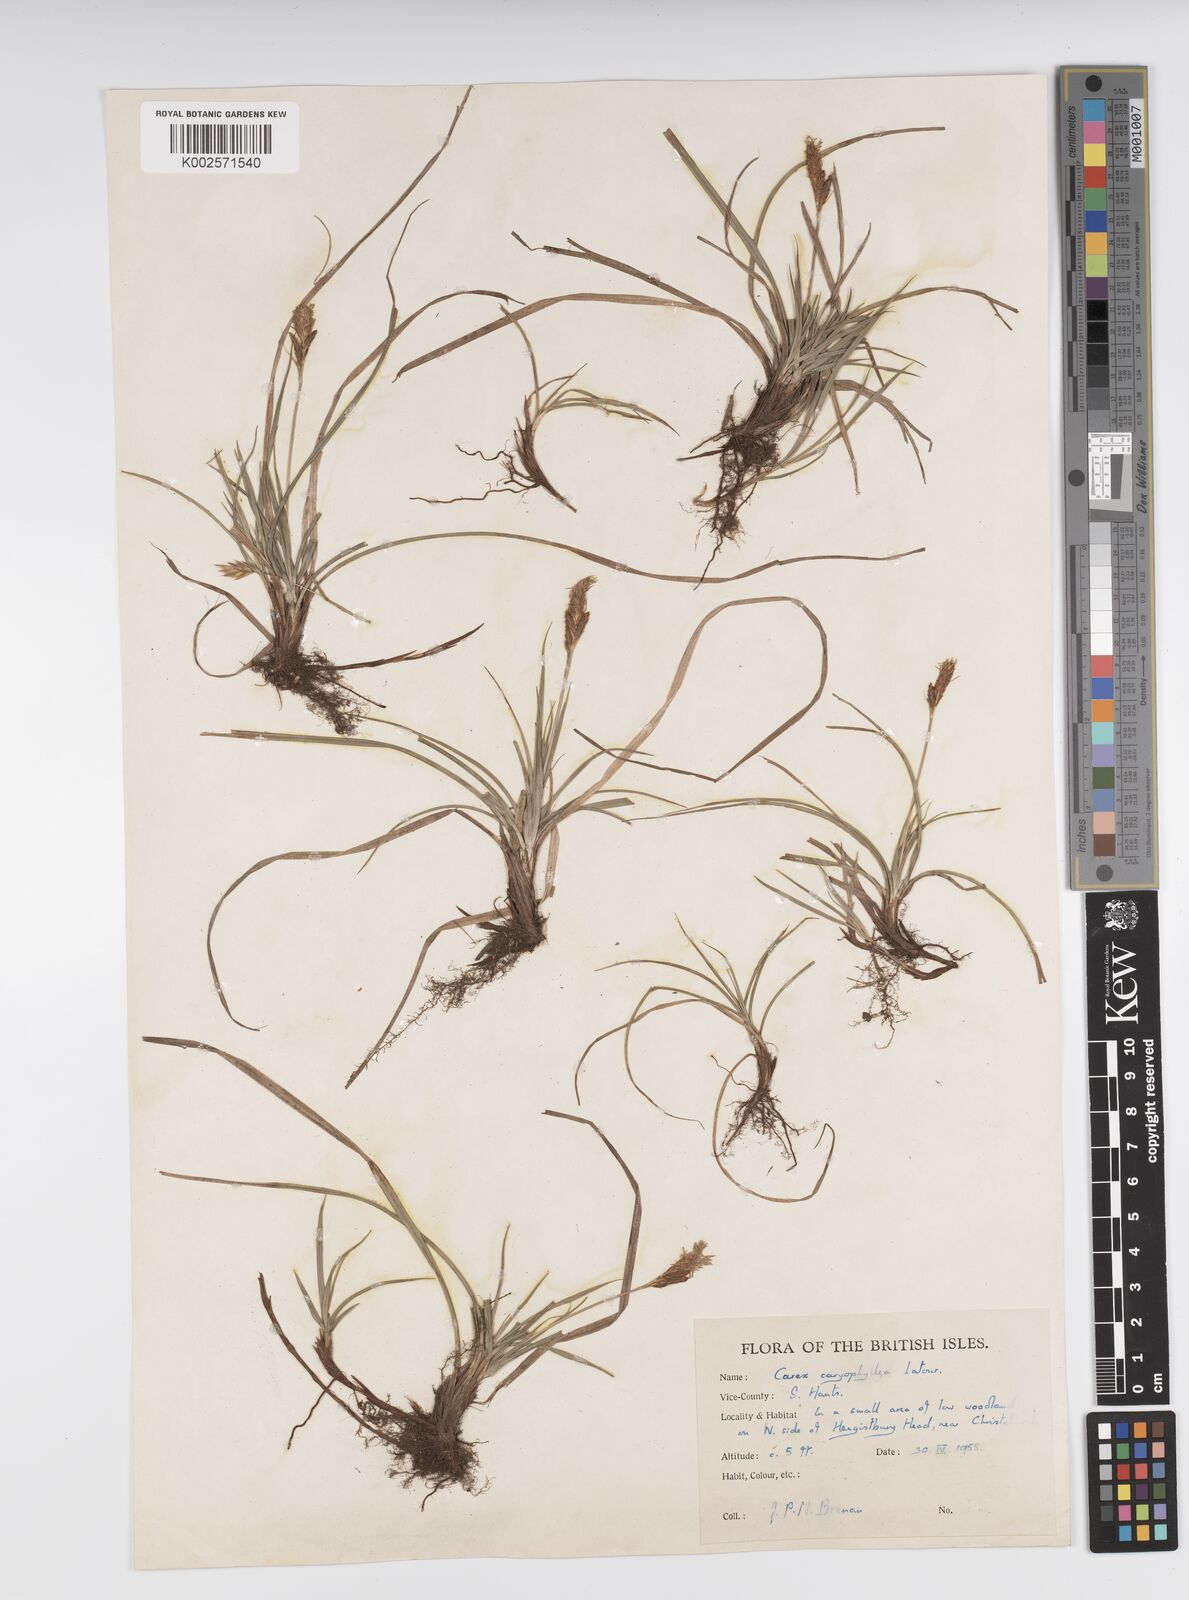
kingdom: Plantae
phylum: Tracheophyta
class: Liliopsida
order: Poales
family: Cyperaceae
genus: Carex
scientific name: Carex caryophyllea
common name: Spring sedge
